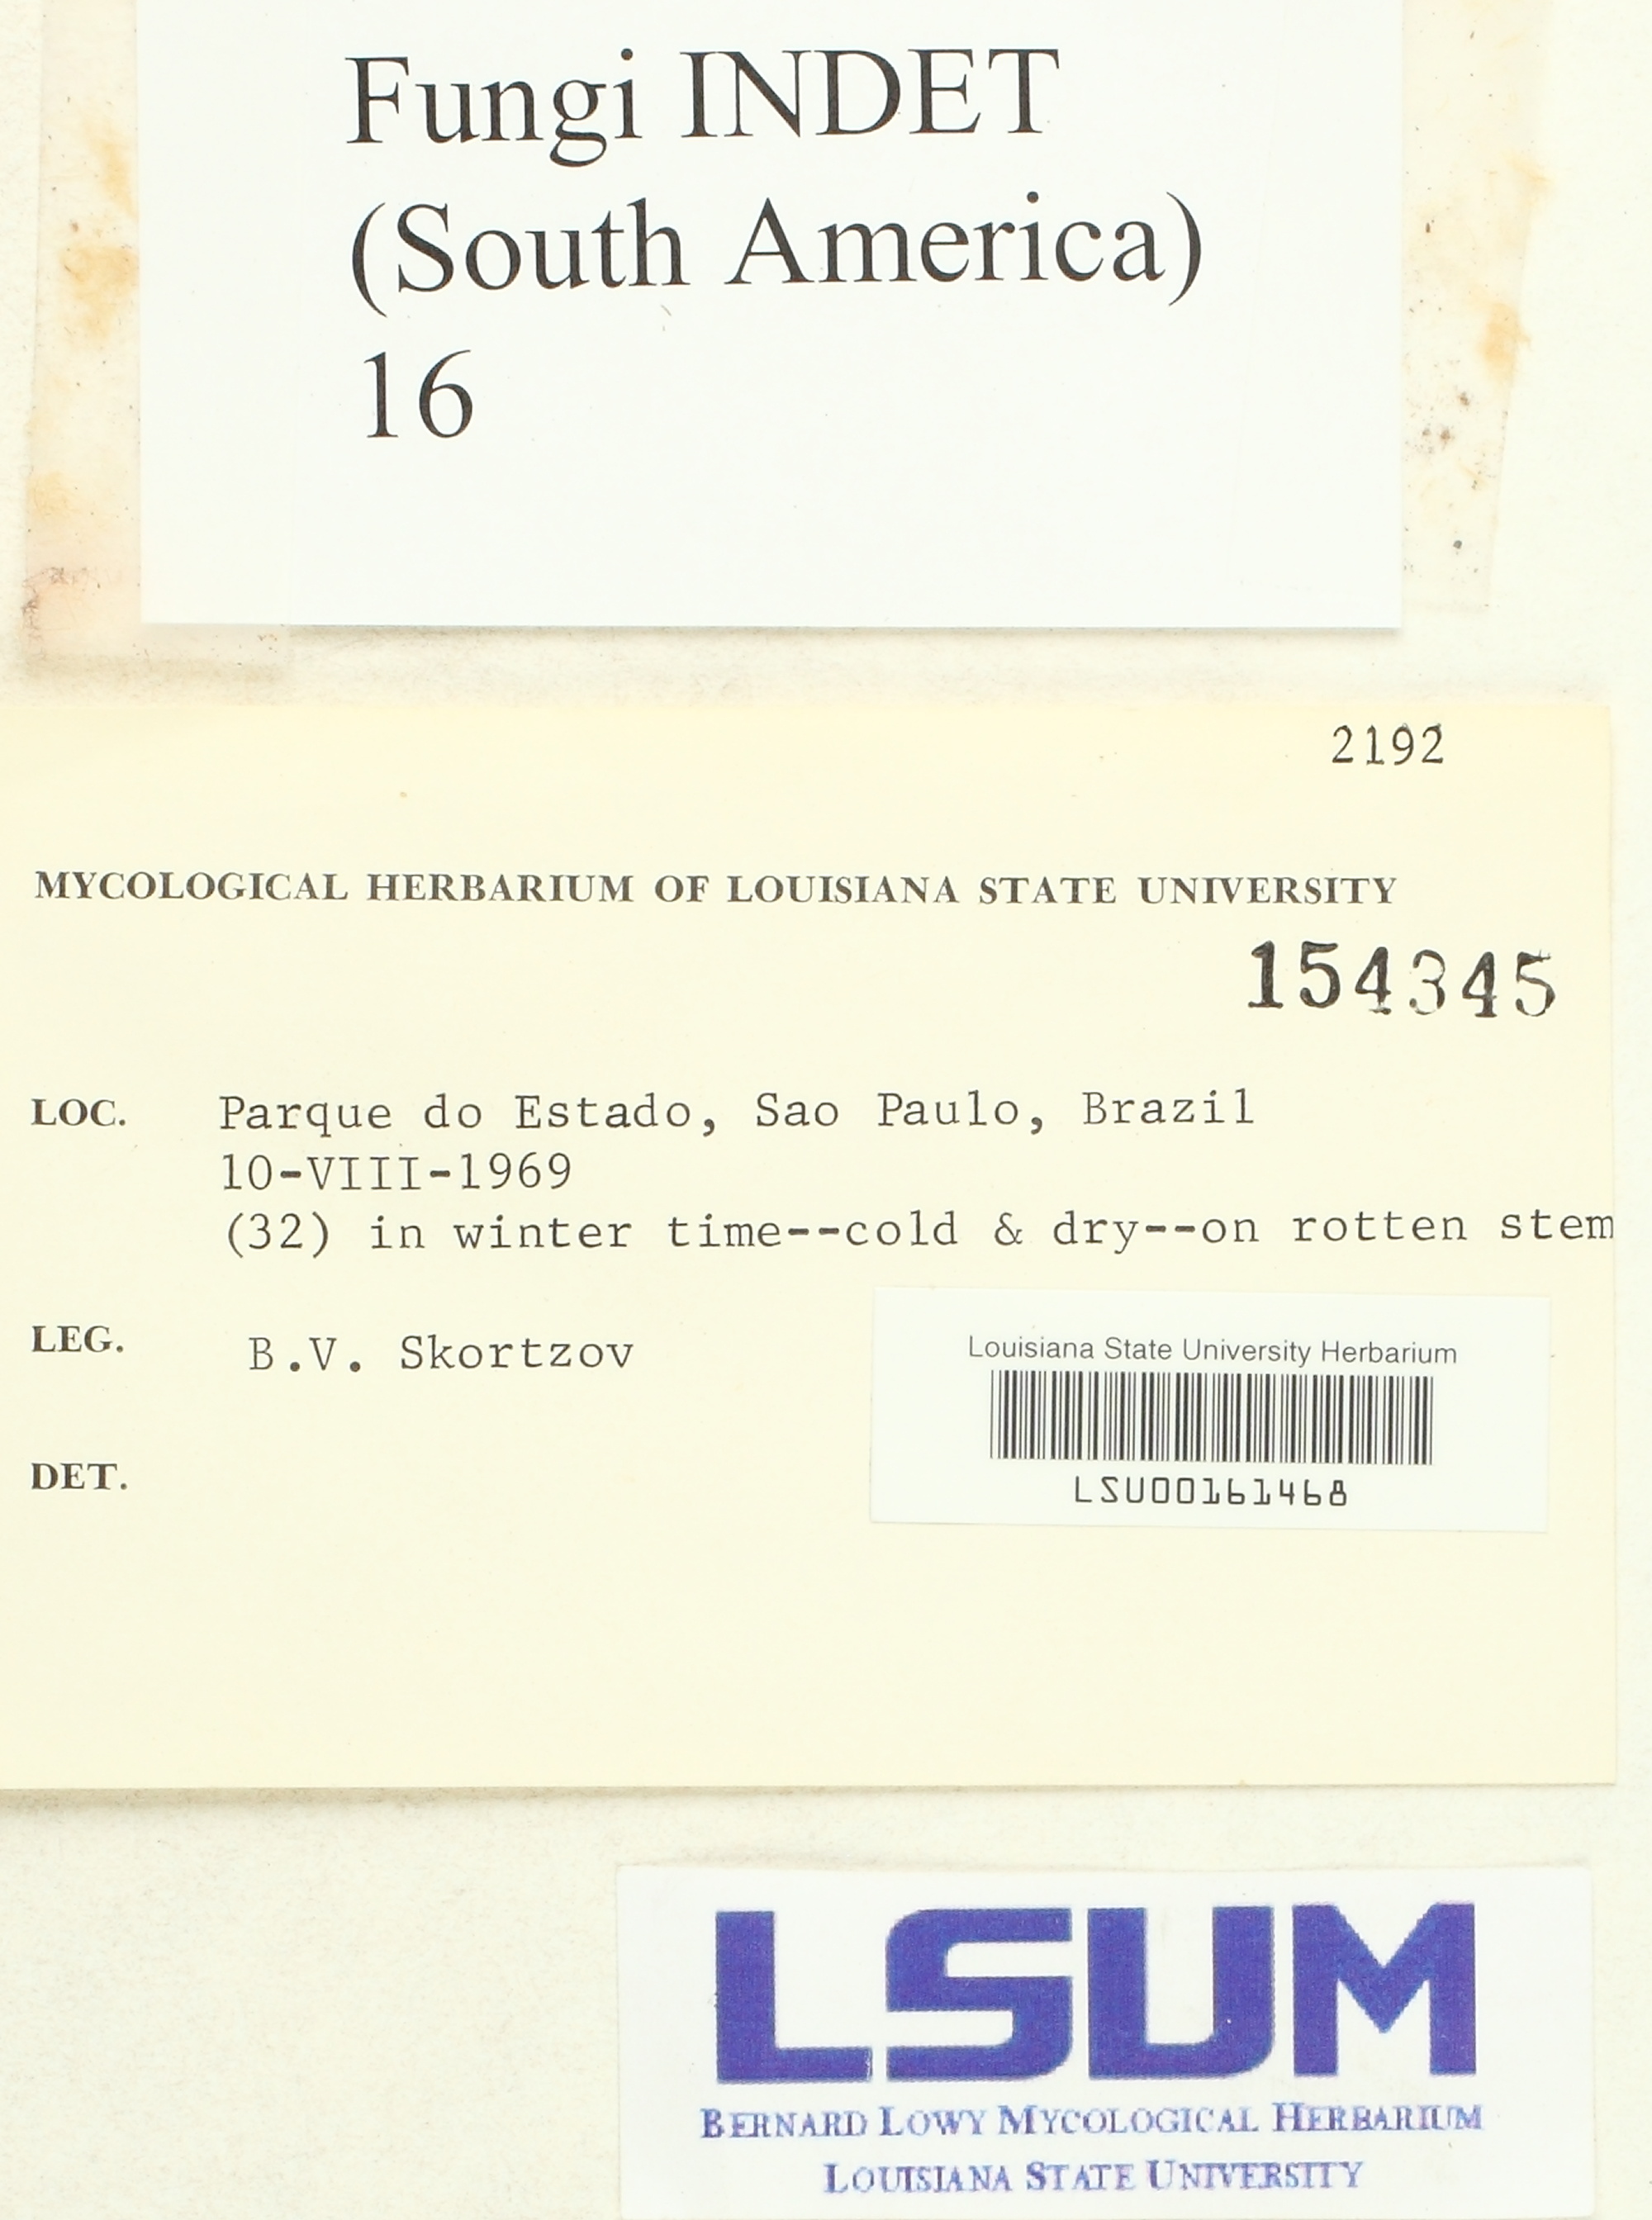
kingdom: Fungi
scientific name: Fungi
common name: Fungi
